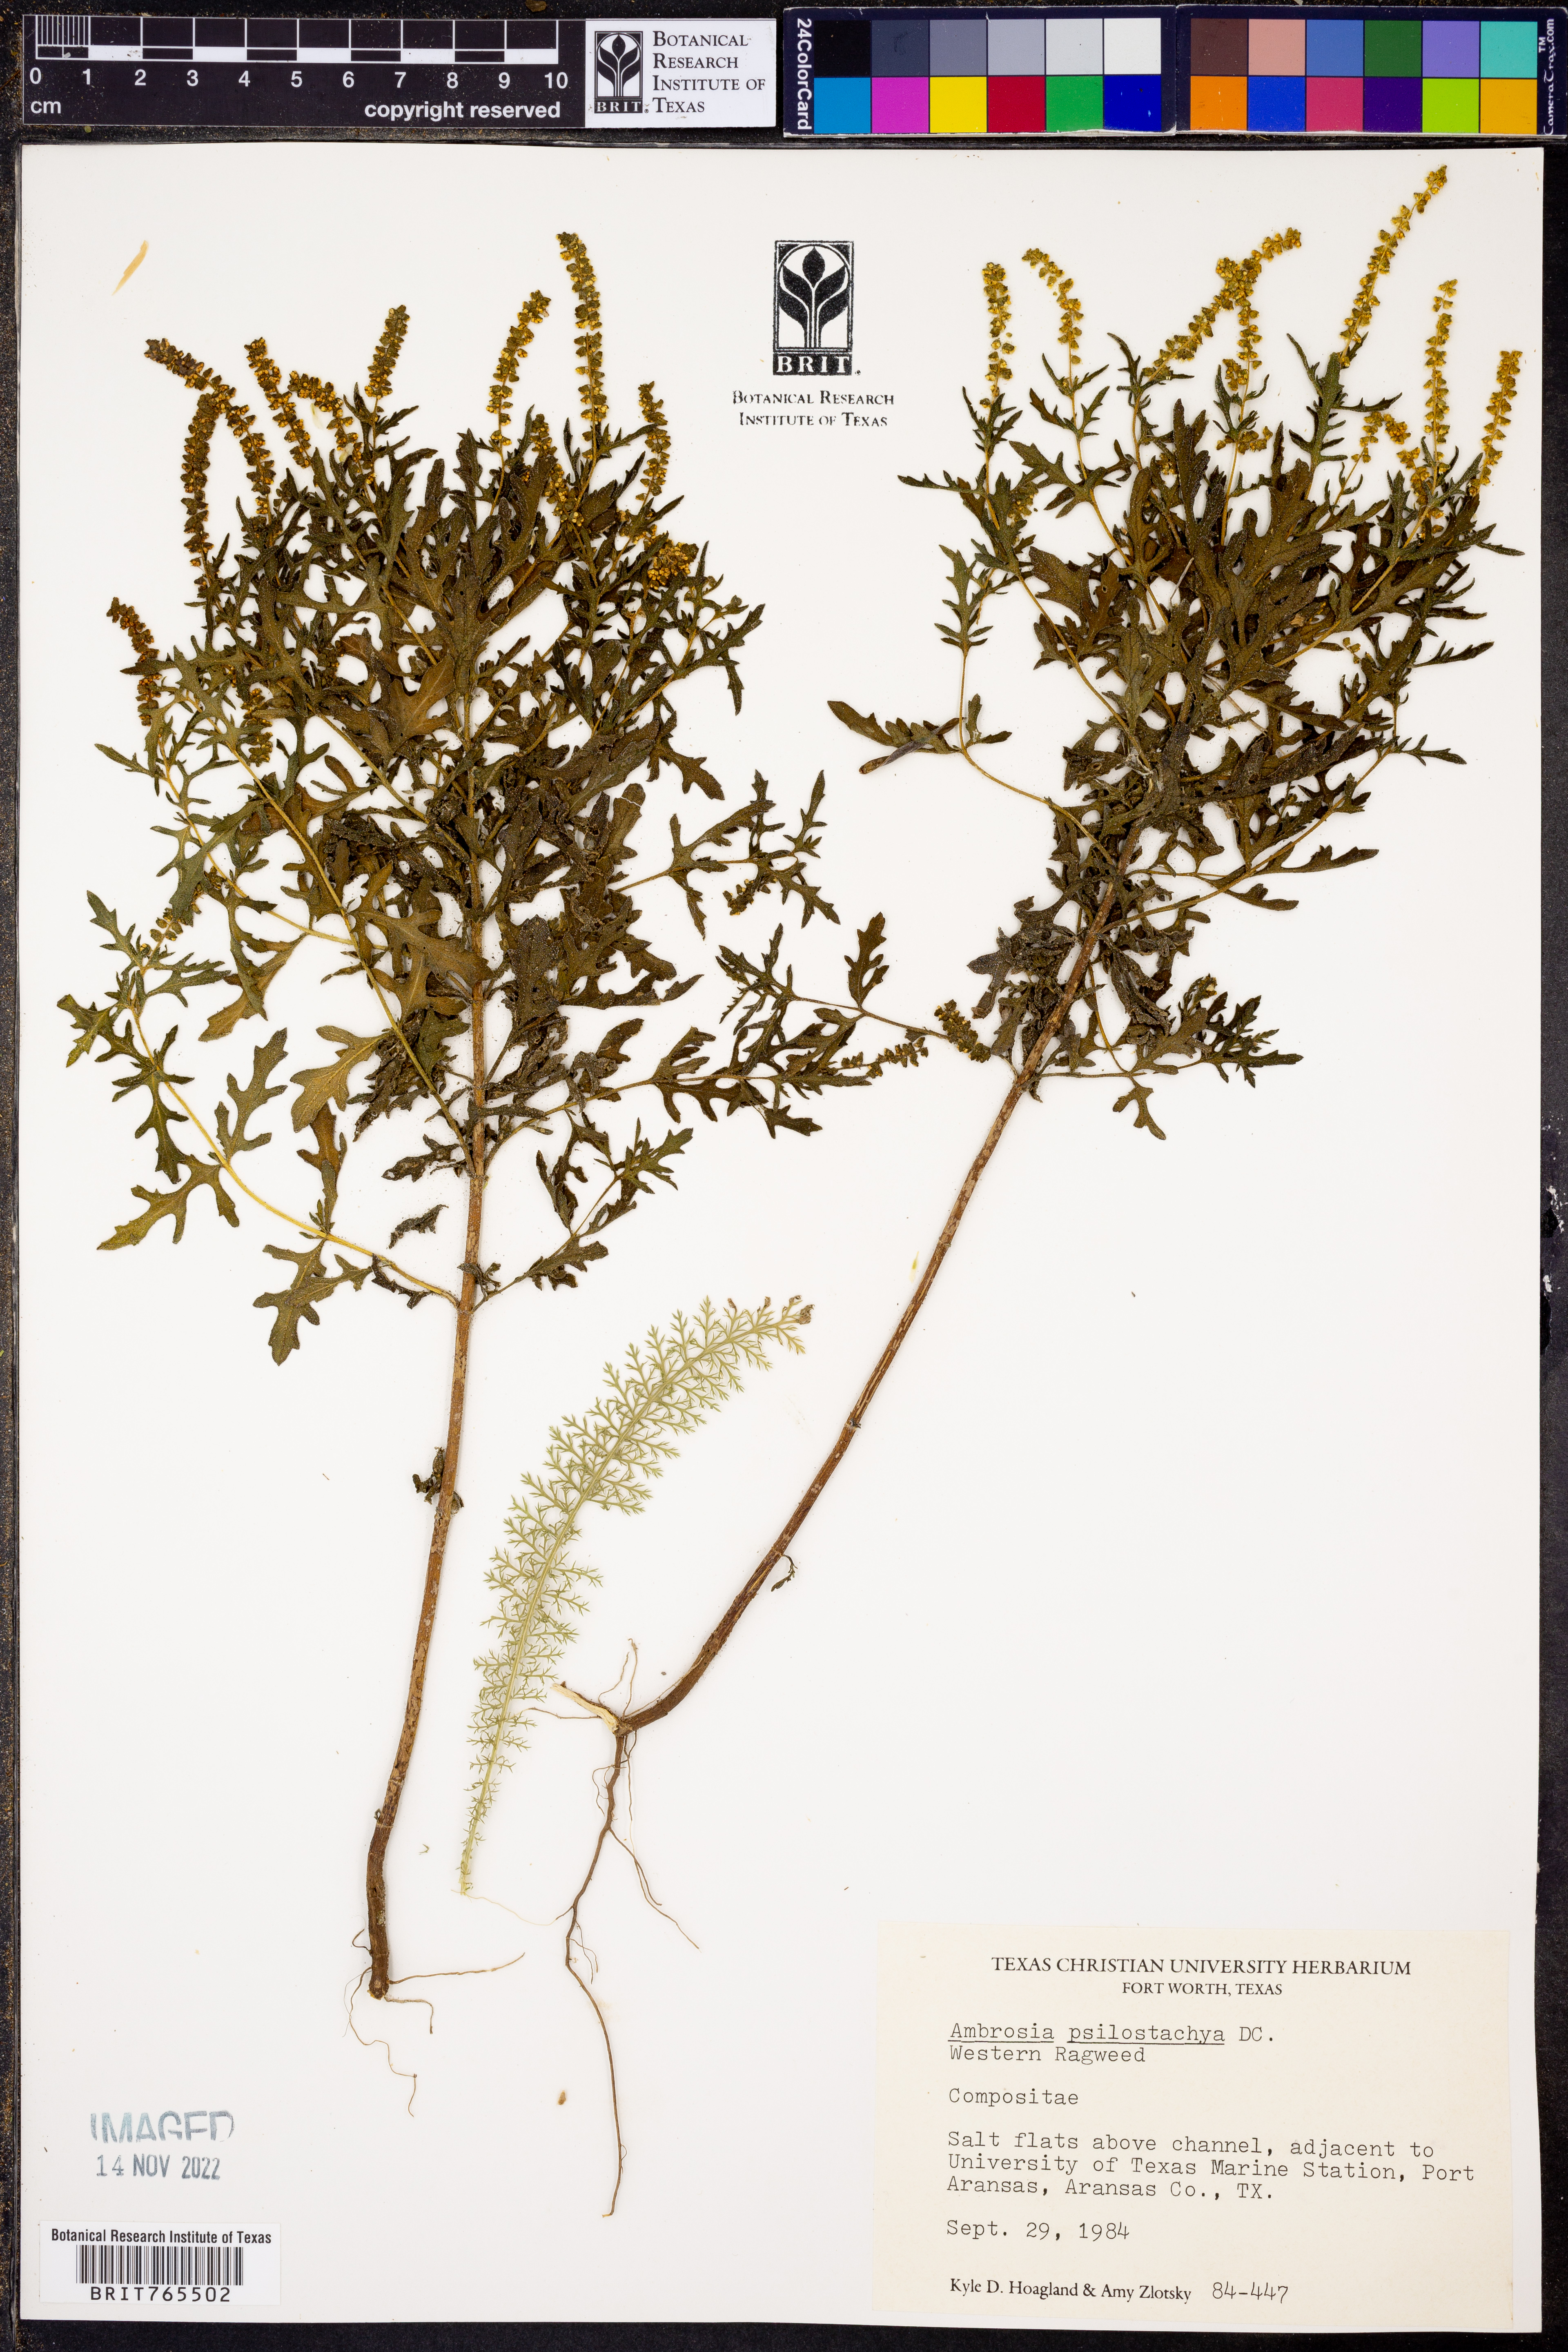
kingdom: Plantae
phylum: Tracheophyta
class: Magnoliopsida
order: Asterales
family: Asteraceae
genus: Ambrosia
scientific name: Ambrosia psilostachya
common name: Perennial ragweed
